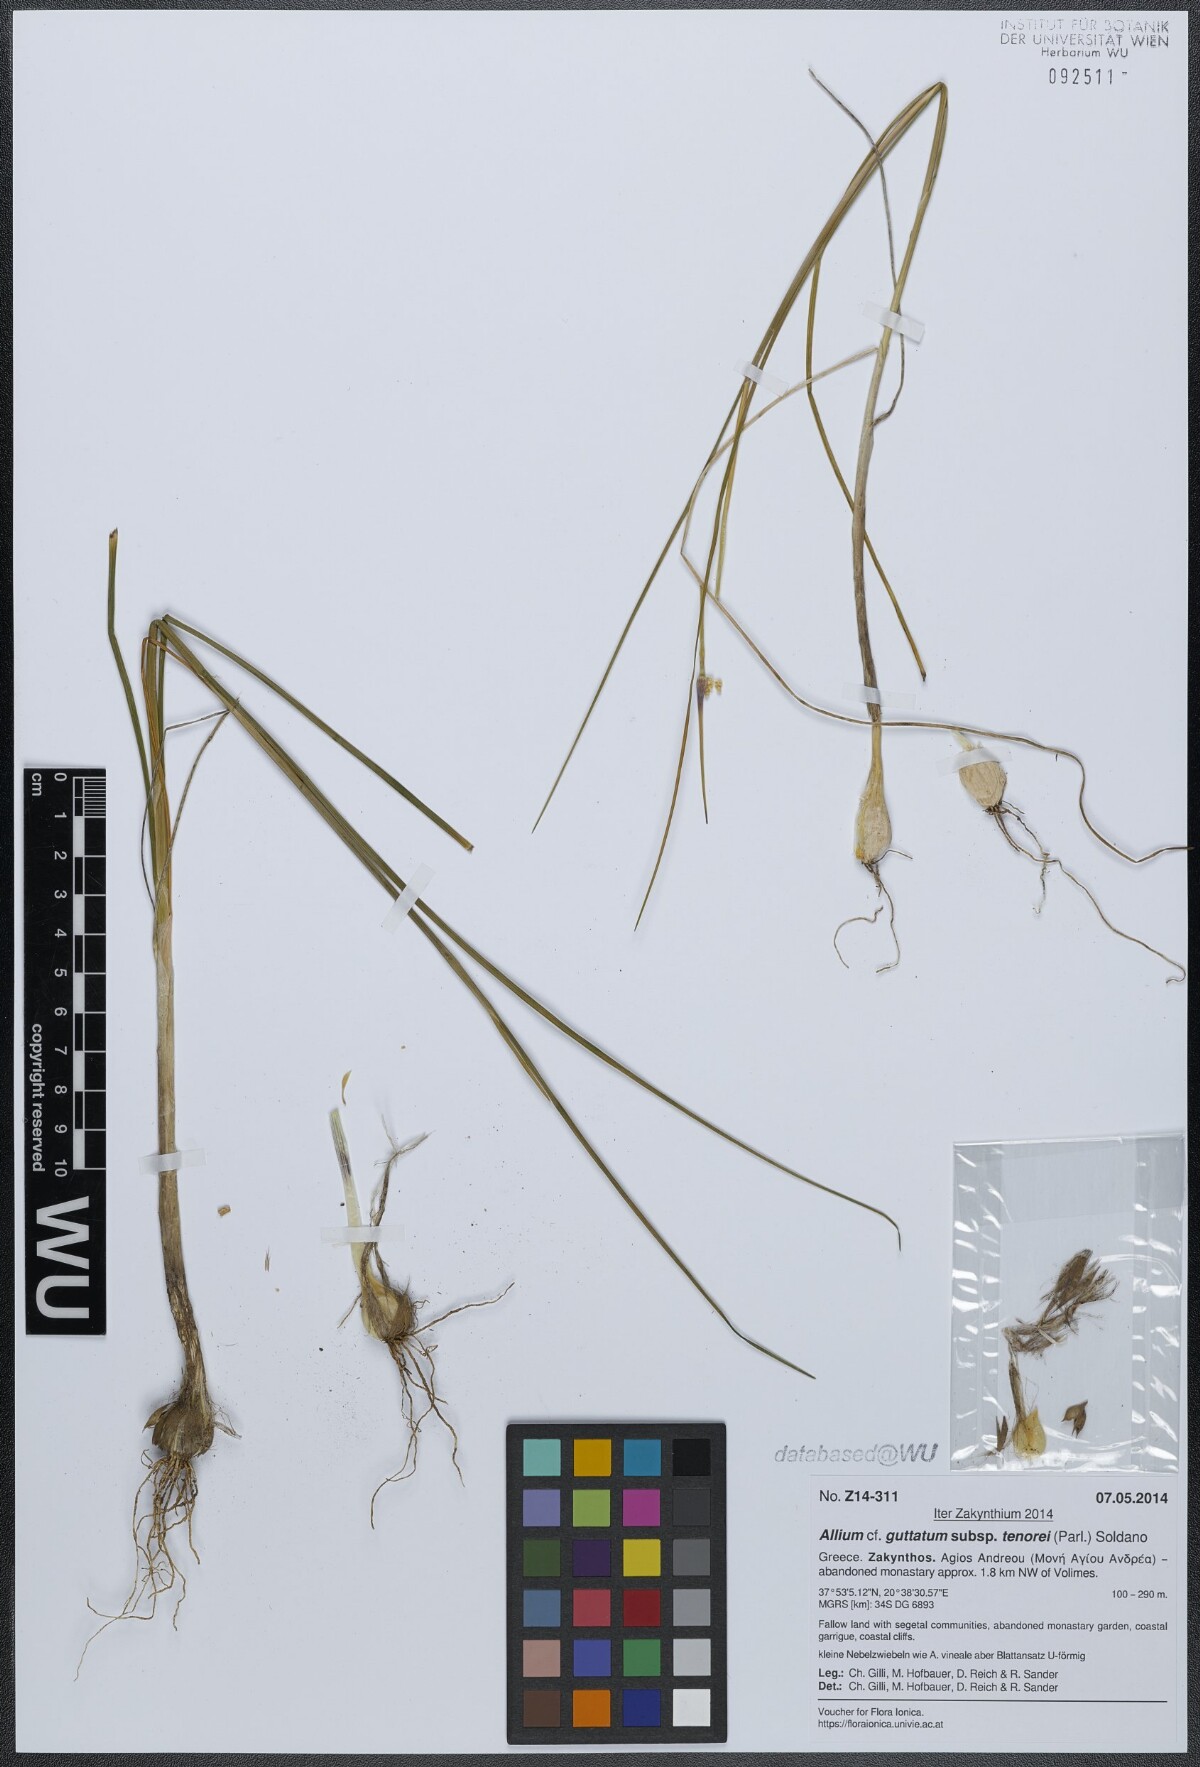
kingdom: Plantae
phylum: Tracheophyta
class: Liliopsida
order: Asparagales
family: Amaryllidaceae
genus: Allium
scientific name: Allium sardoum
